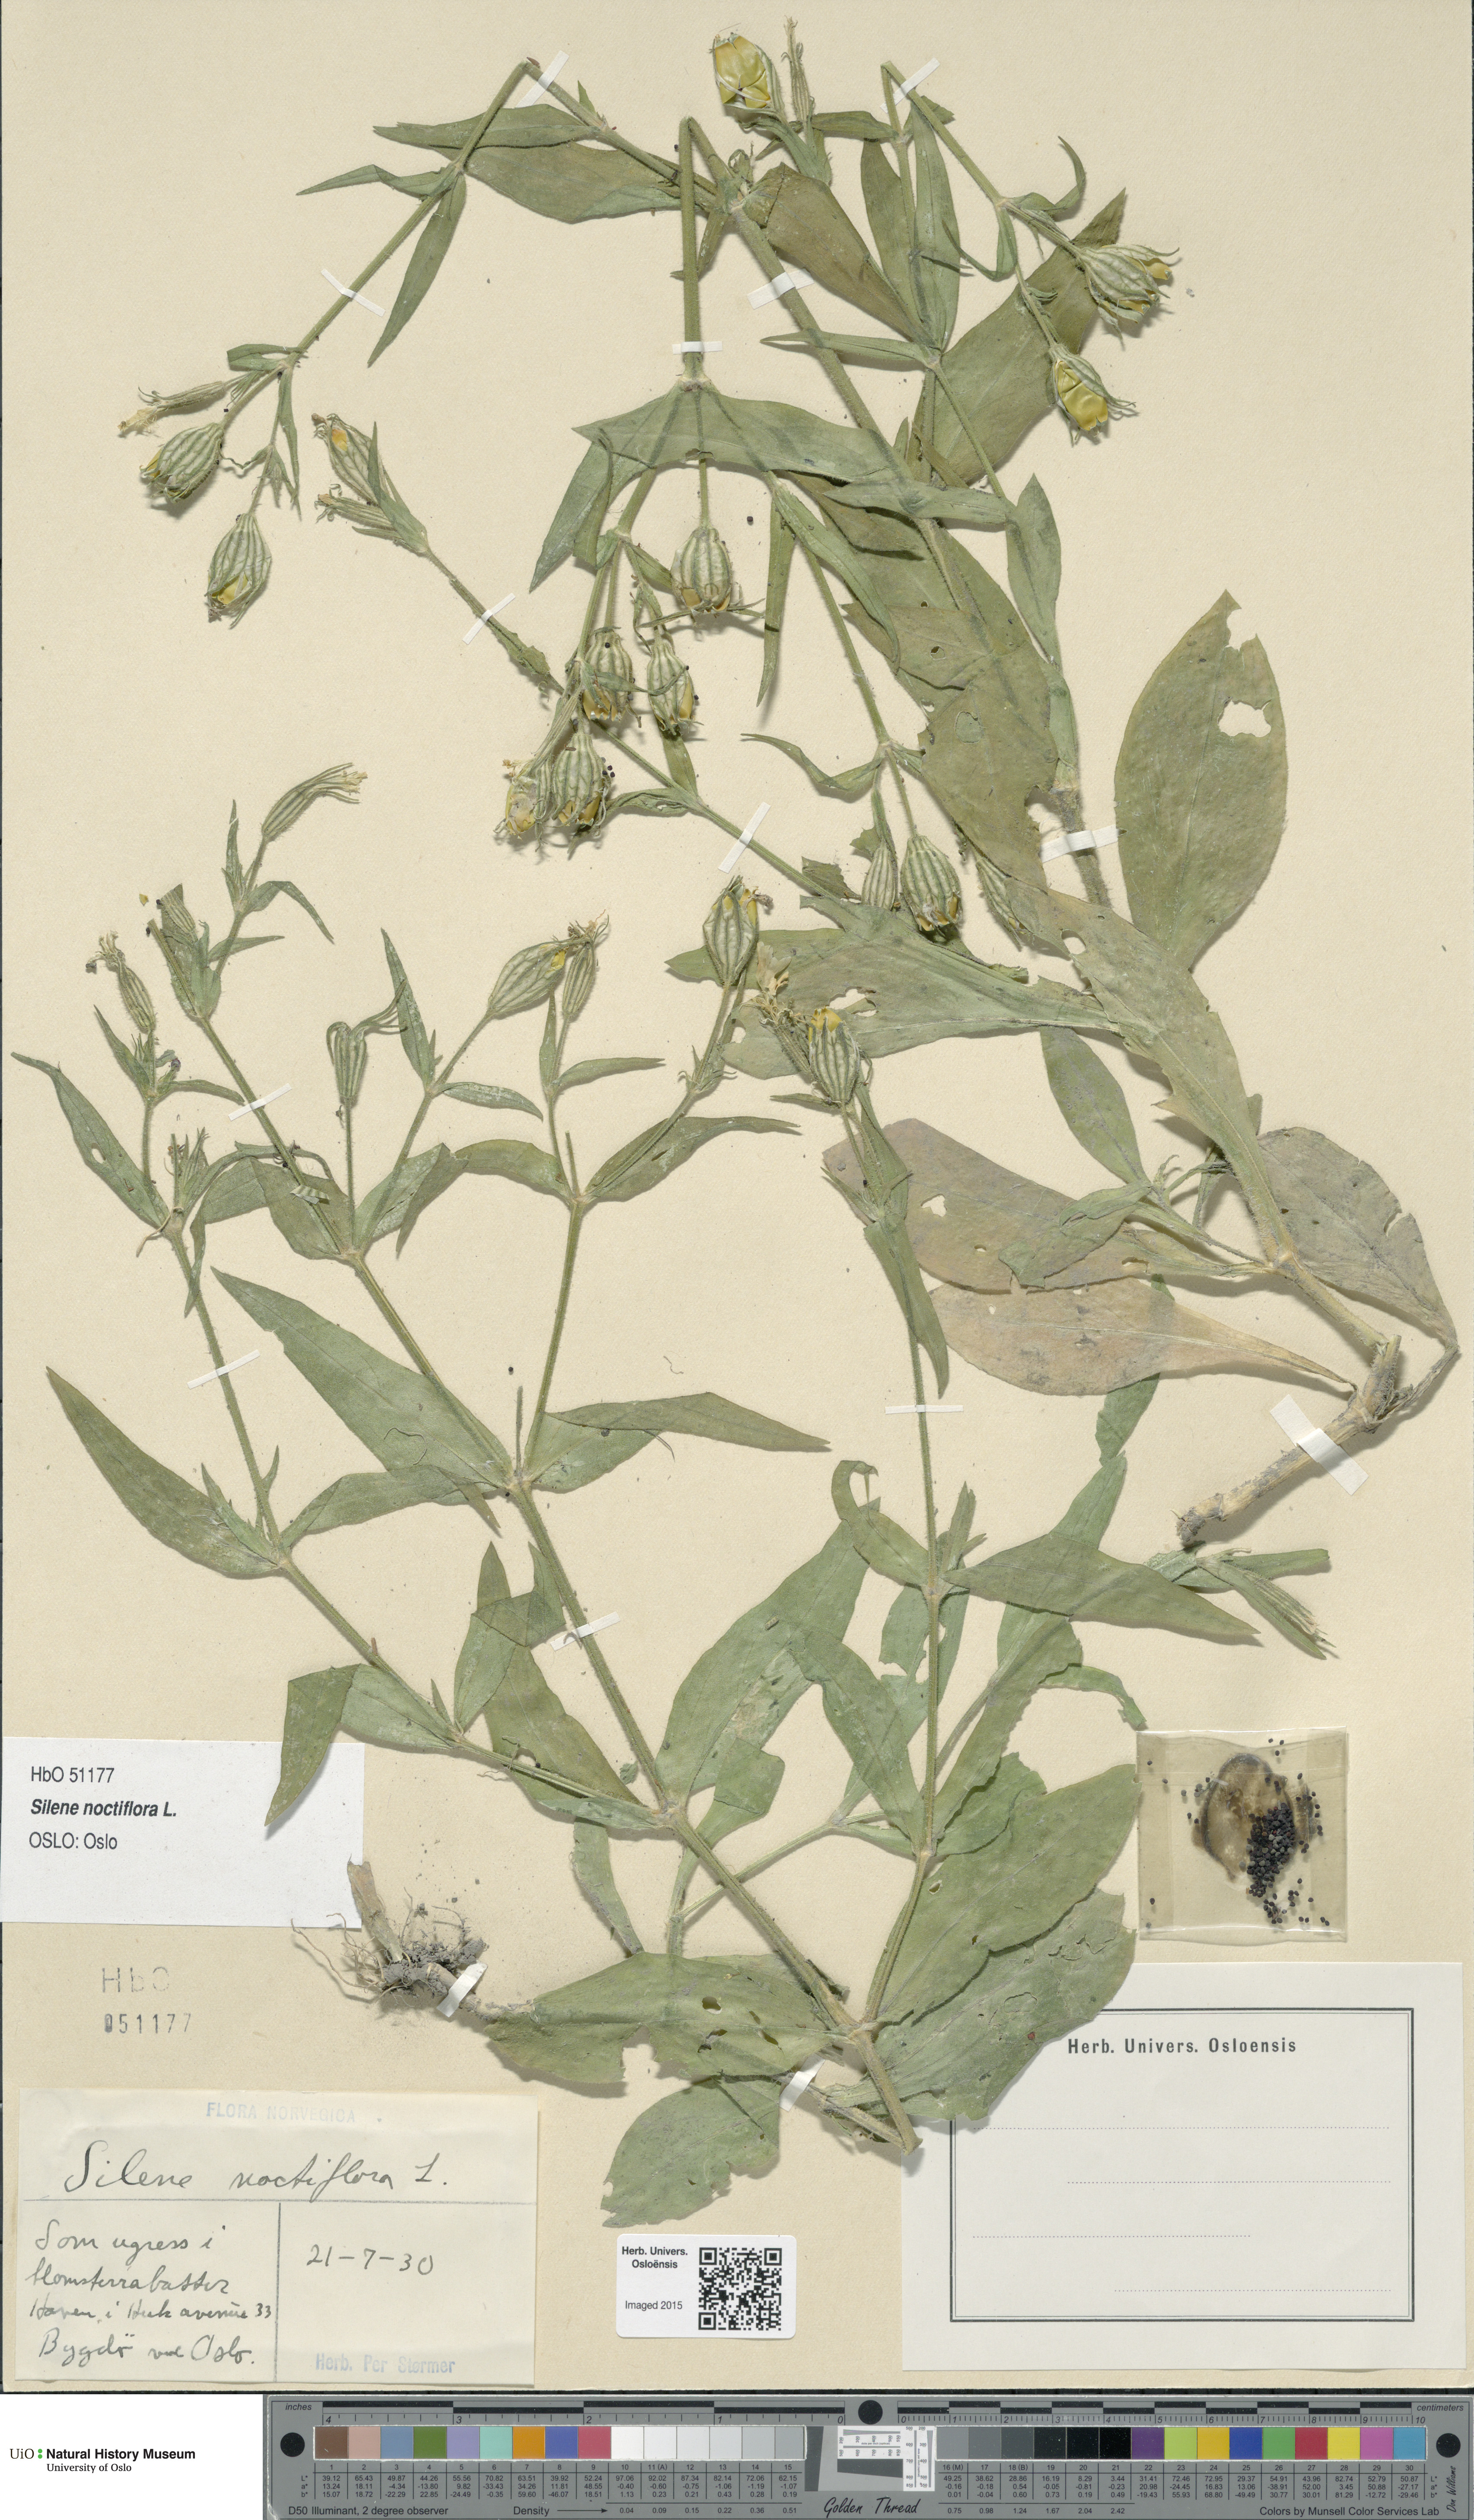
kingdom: Plantae
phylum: Tracheophyta
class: Magnoliopsida
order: Caryophyllales
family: Caryophyllaceae
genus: Silene
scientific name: Silene noctiflora
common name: Night-flowering catchfly
